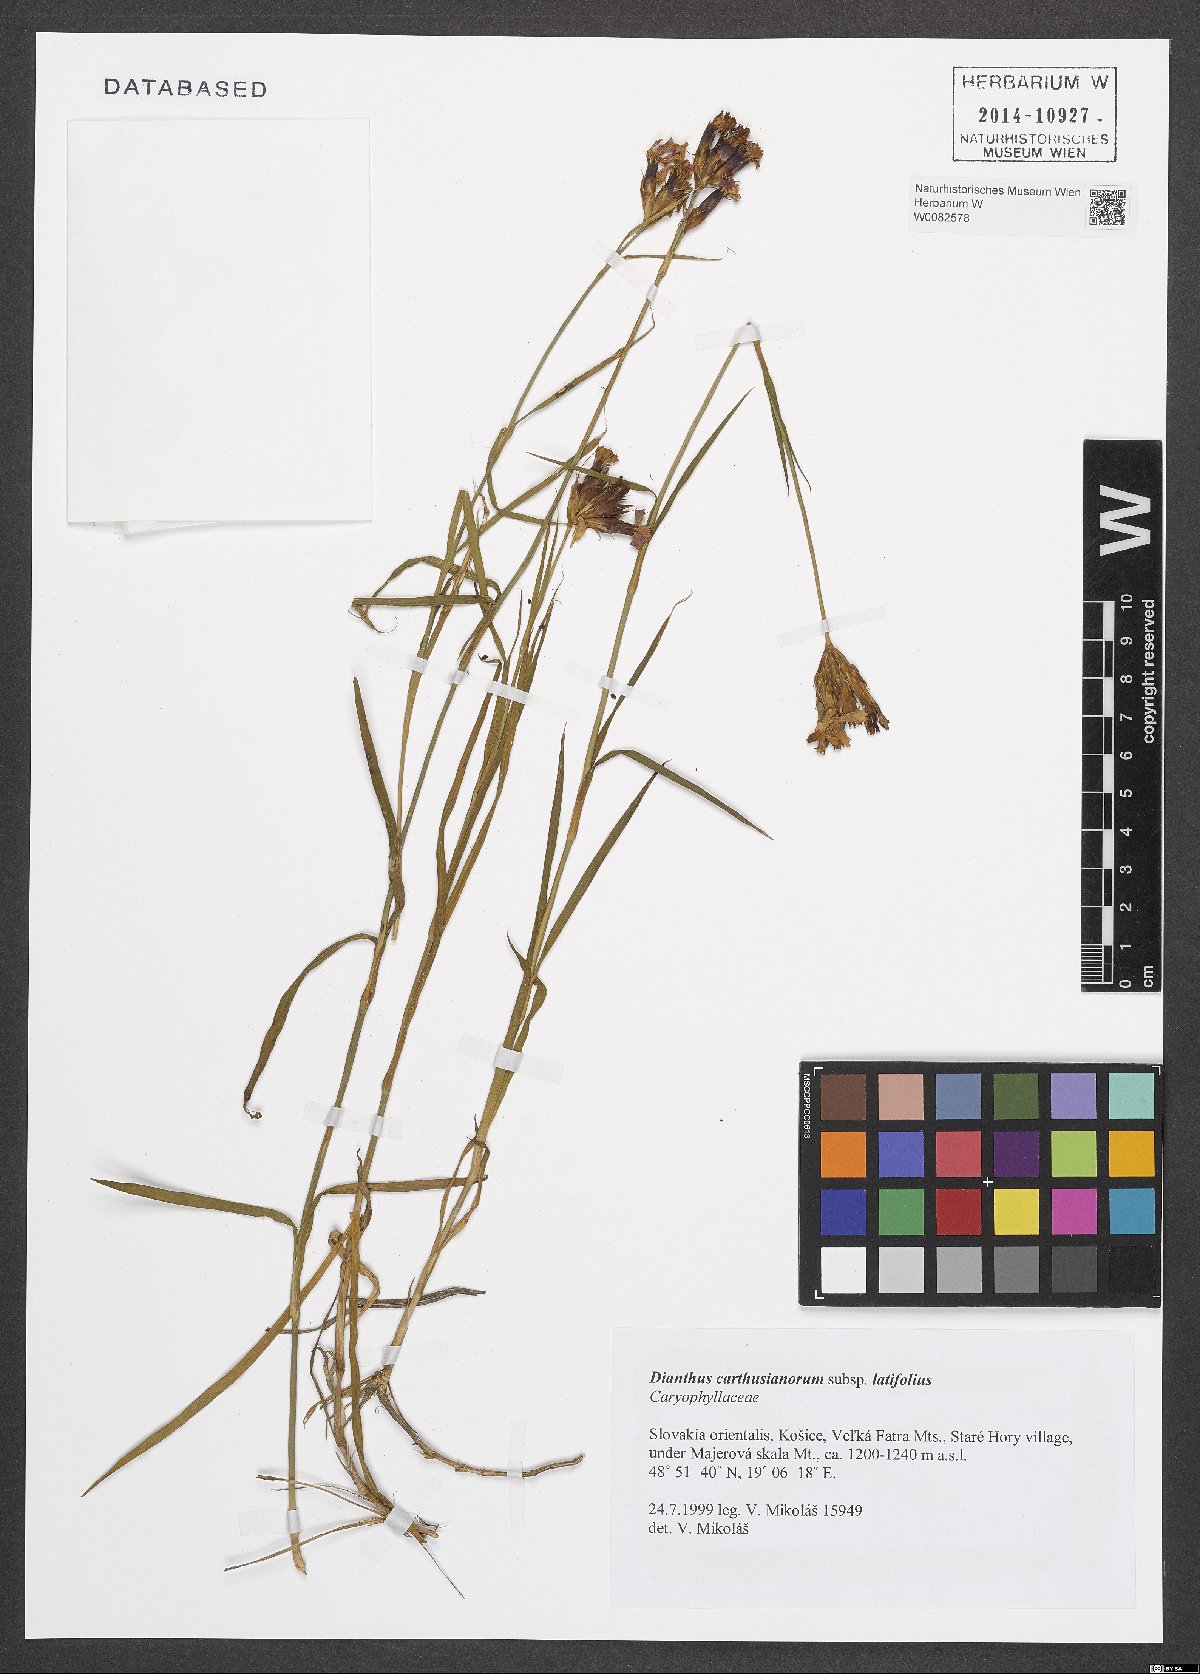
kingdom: Plantae
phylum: Tracheophyta
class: Magnoliopsida
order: Caryophyllales
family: Caryophyllaceae
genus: Dianthus
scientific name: Dianthus carthusianorum
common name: Carthusian pink
